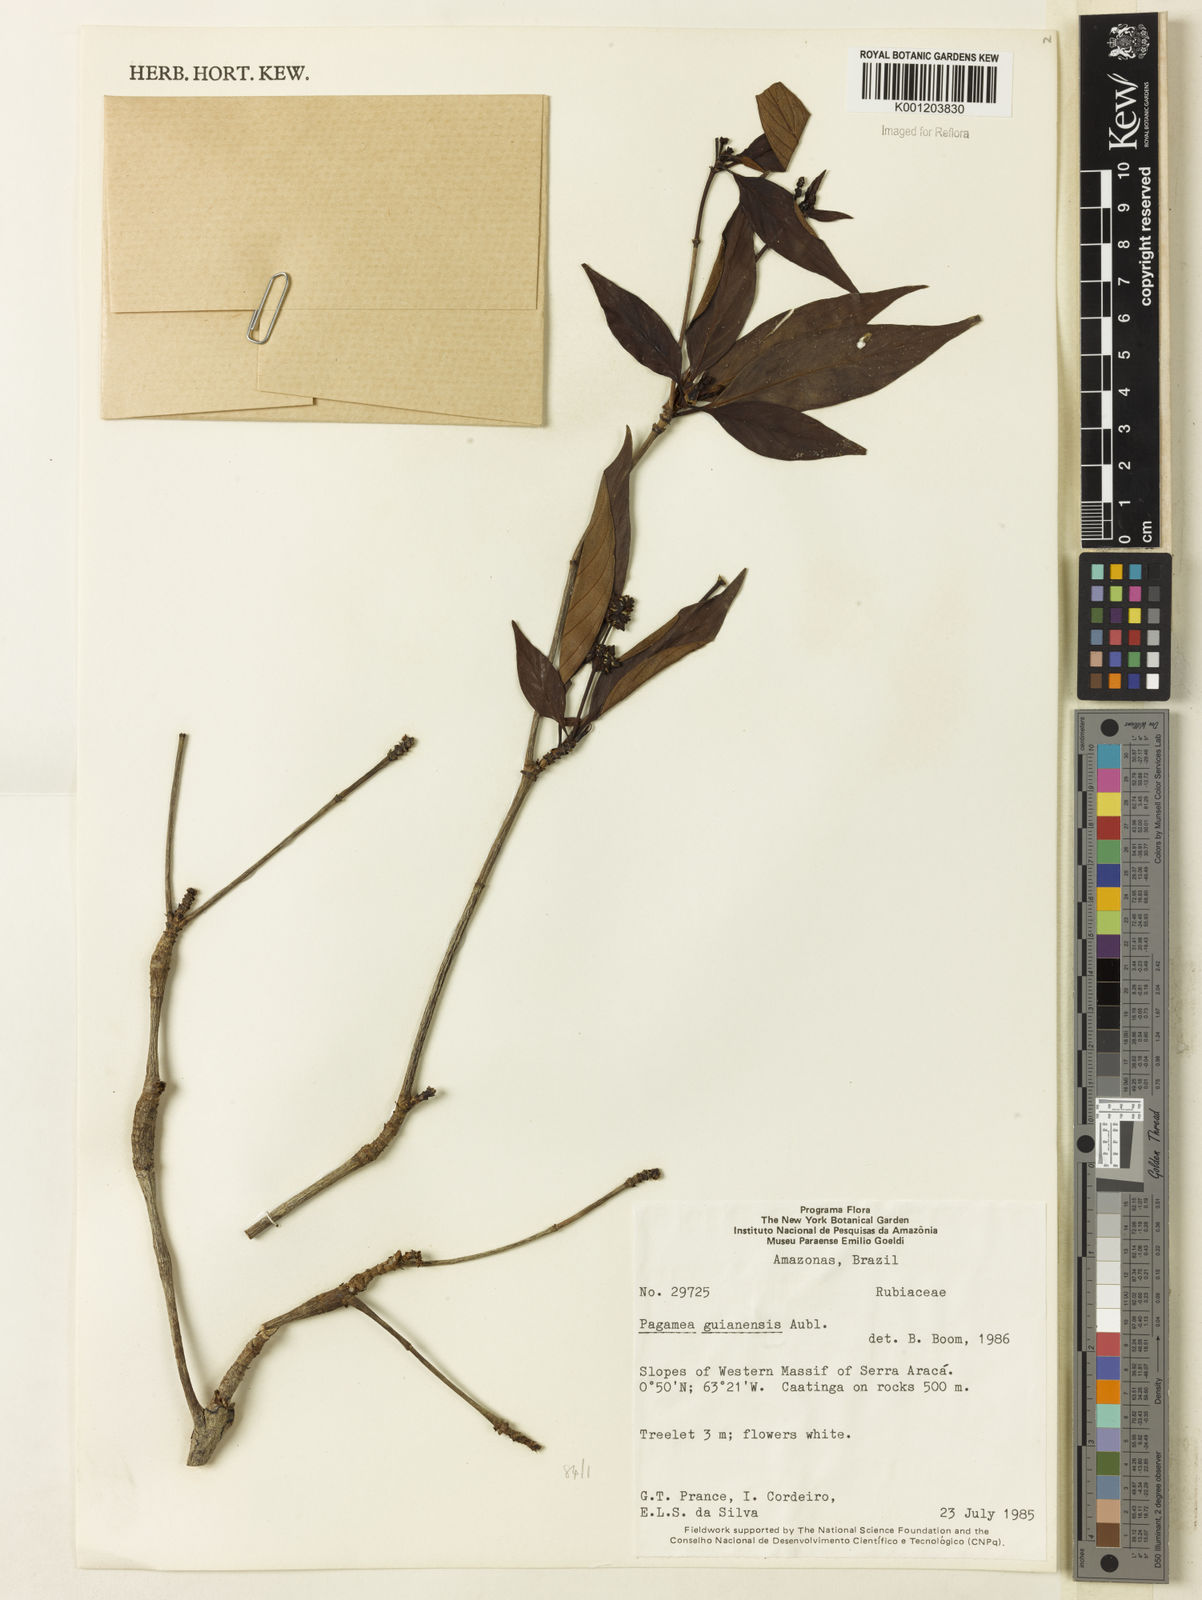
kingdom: Plantae
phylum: Tracheophyta
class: Magnoliopsida
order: Gentianales
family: Rubiaceae
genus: Pagamea
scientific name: Pagamea guianensis
